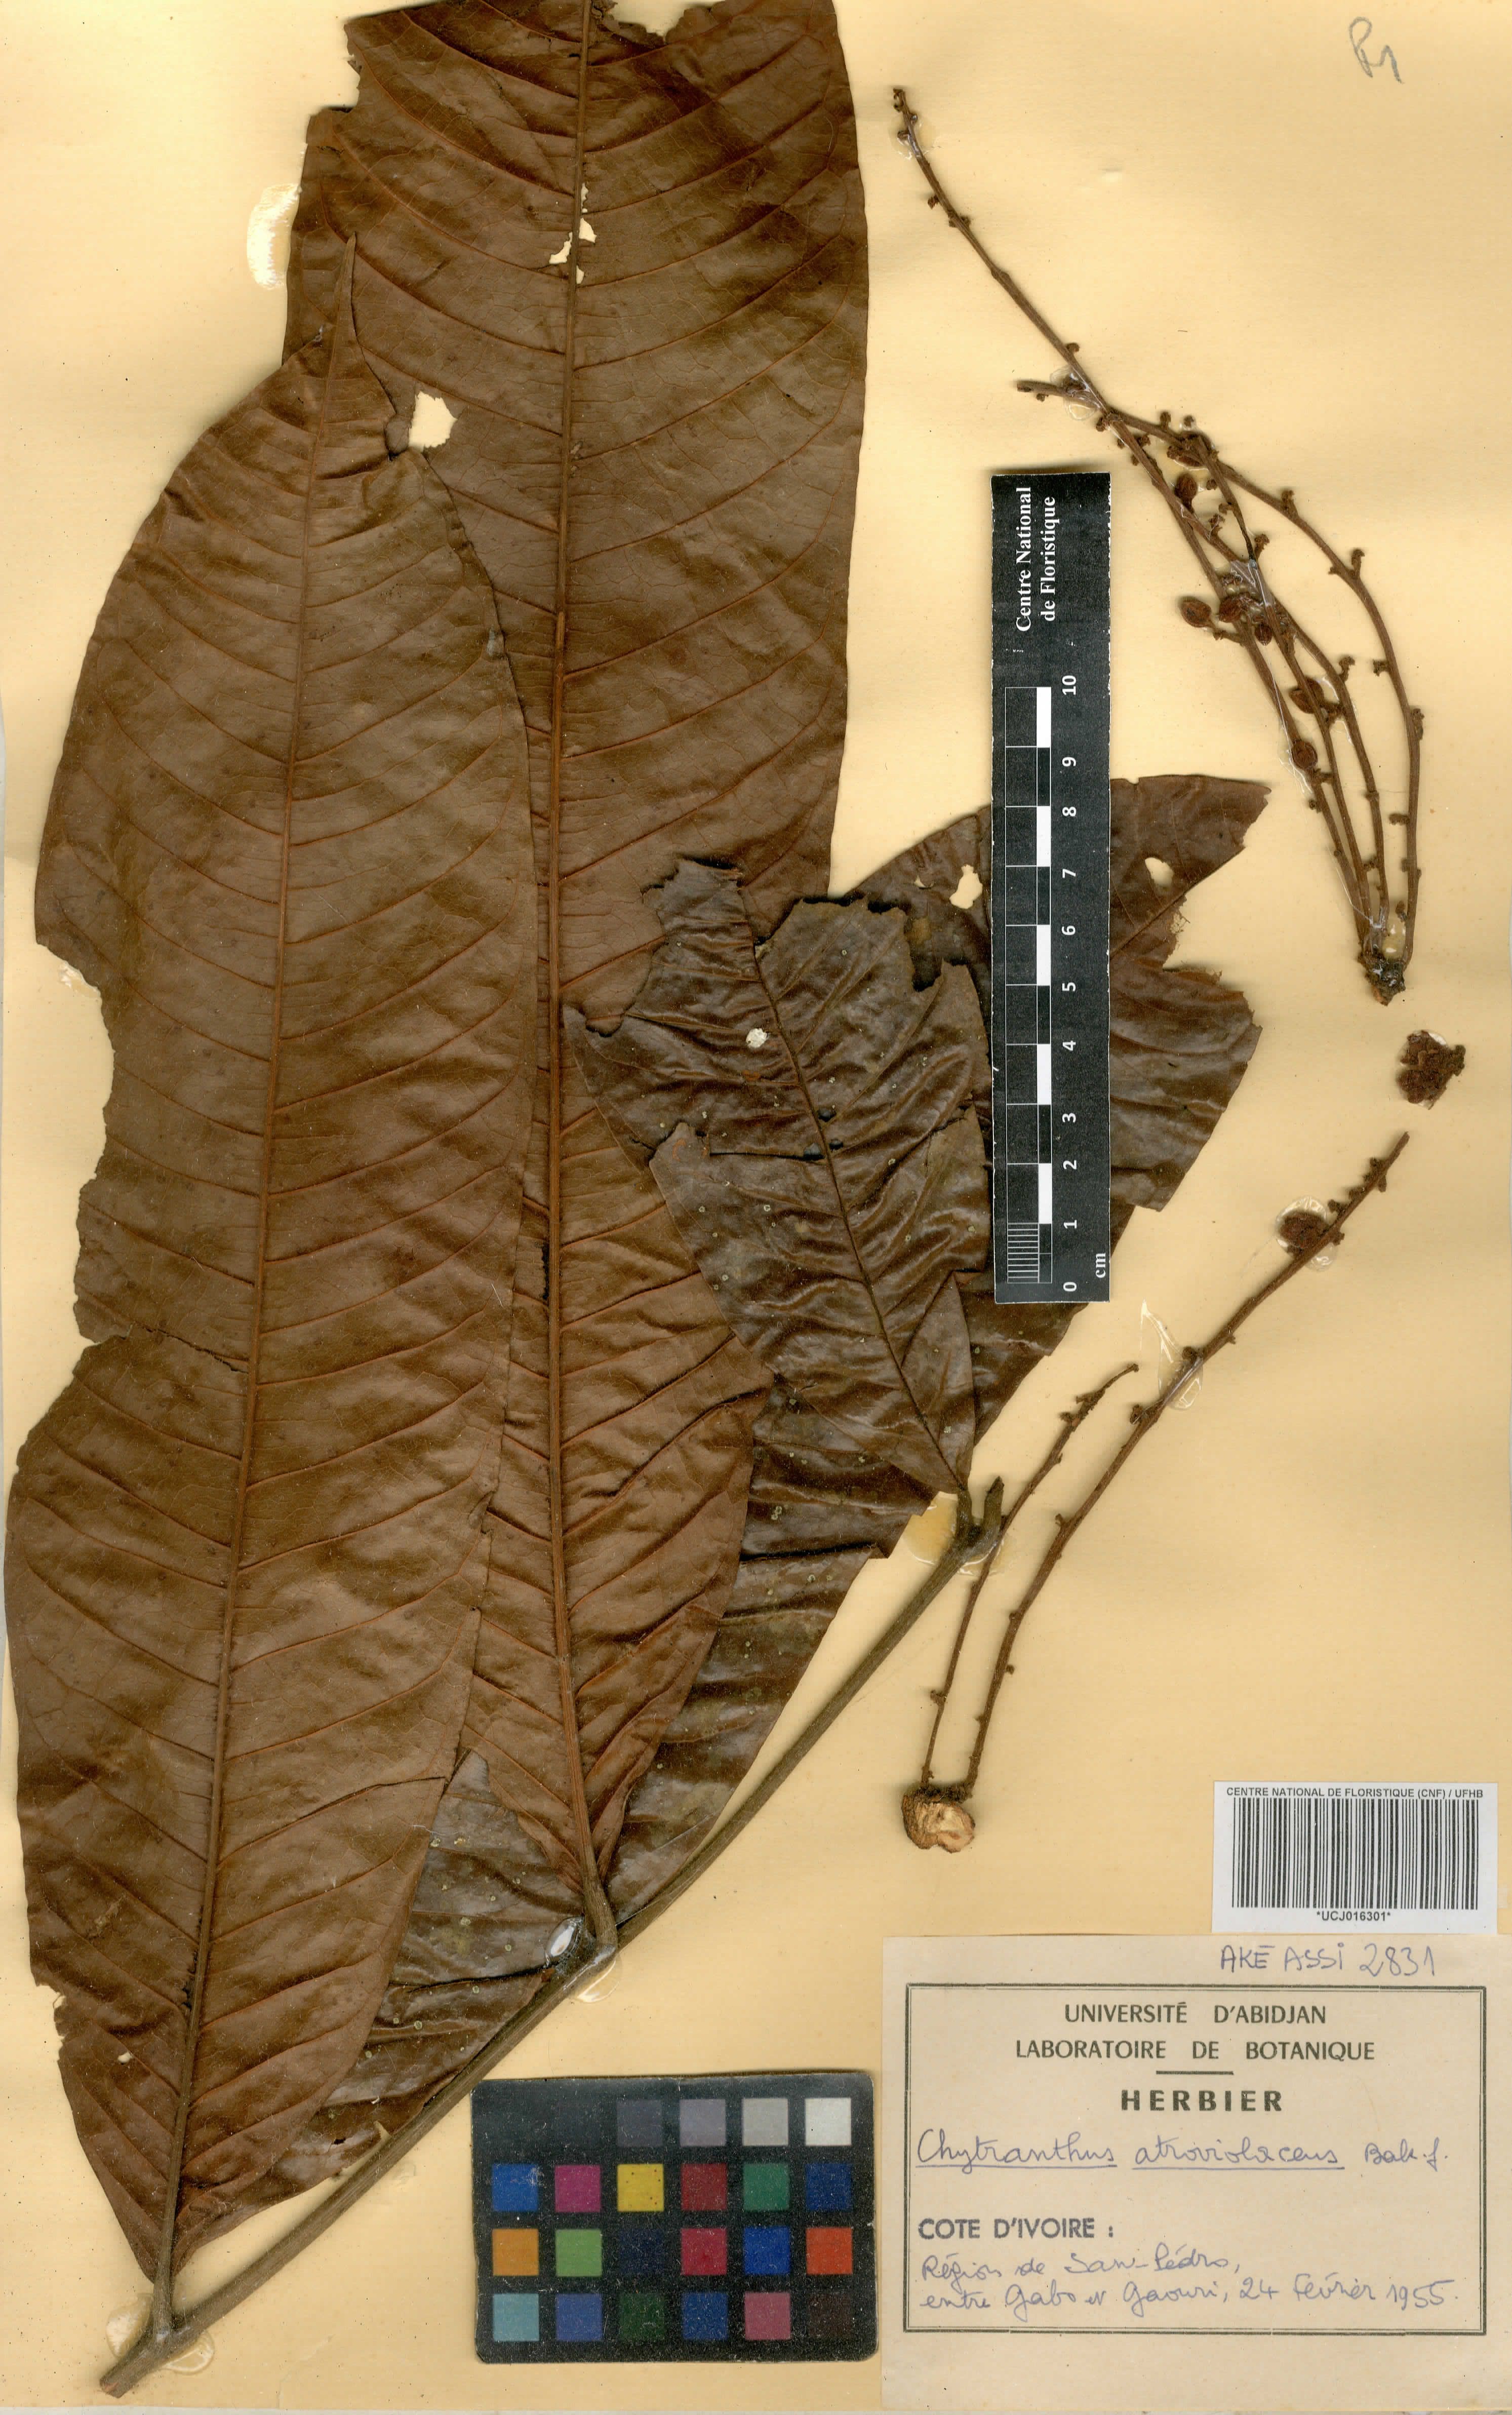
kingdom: Plantae
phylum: Tracheophyta
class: Magnoliopsida
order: Sapindales
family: Sapindaceae
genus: Chytranthus
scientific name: Chytranthus atroviolaceus
